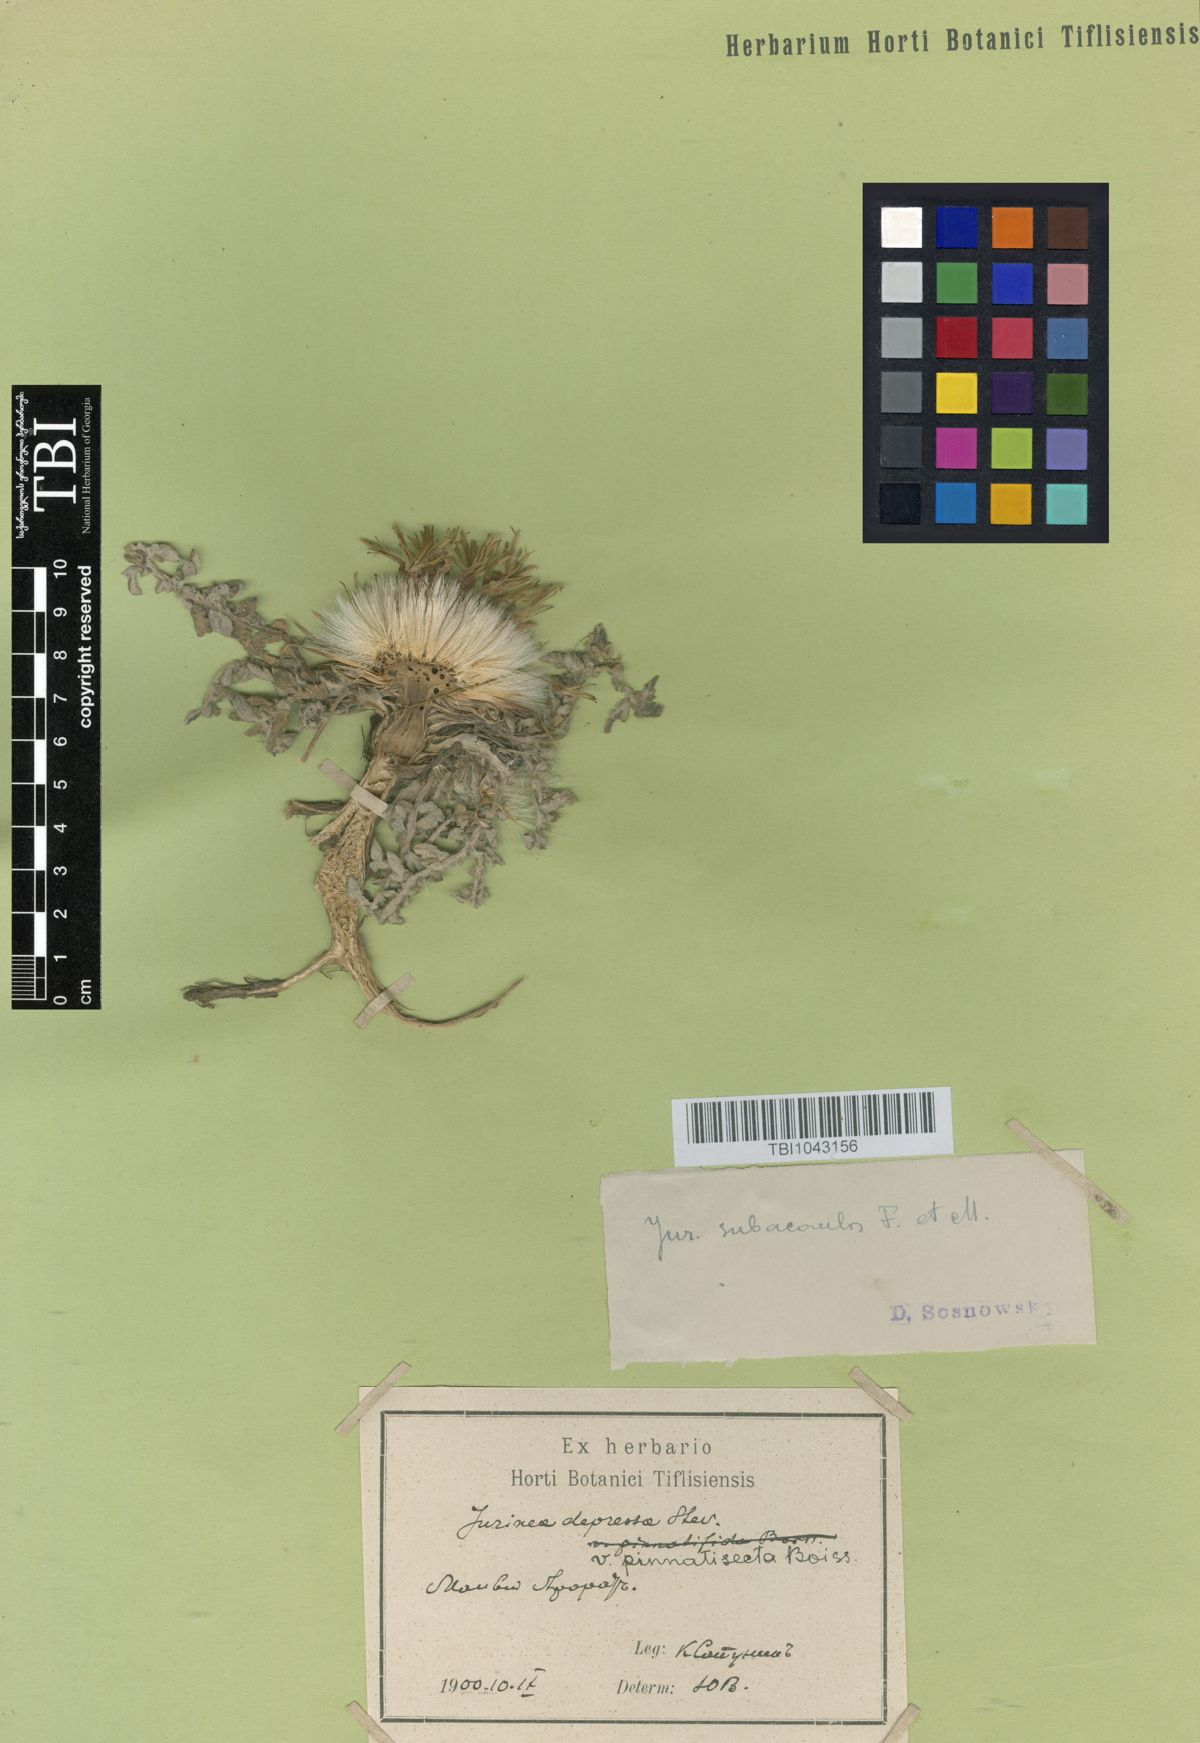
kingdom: Plantae
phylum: Tracheophyta
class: Magnoliopsida
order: Asterales
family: Asteraceae
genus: Jurinea
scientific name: Jurinea moschus
